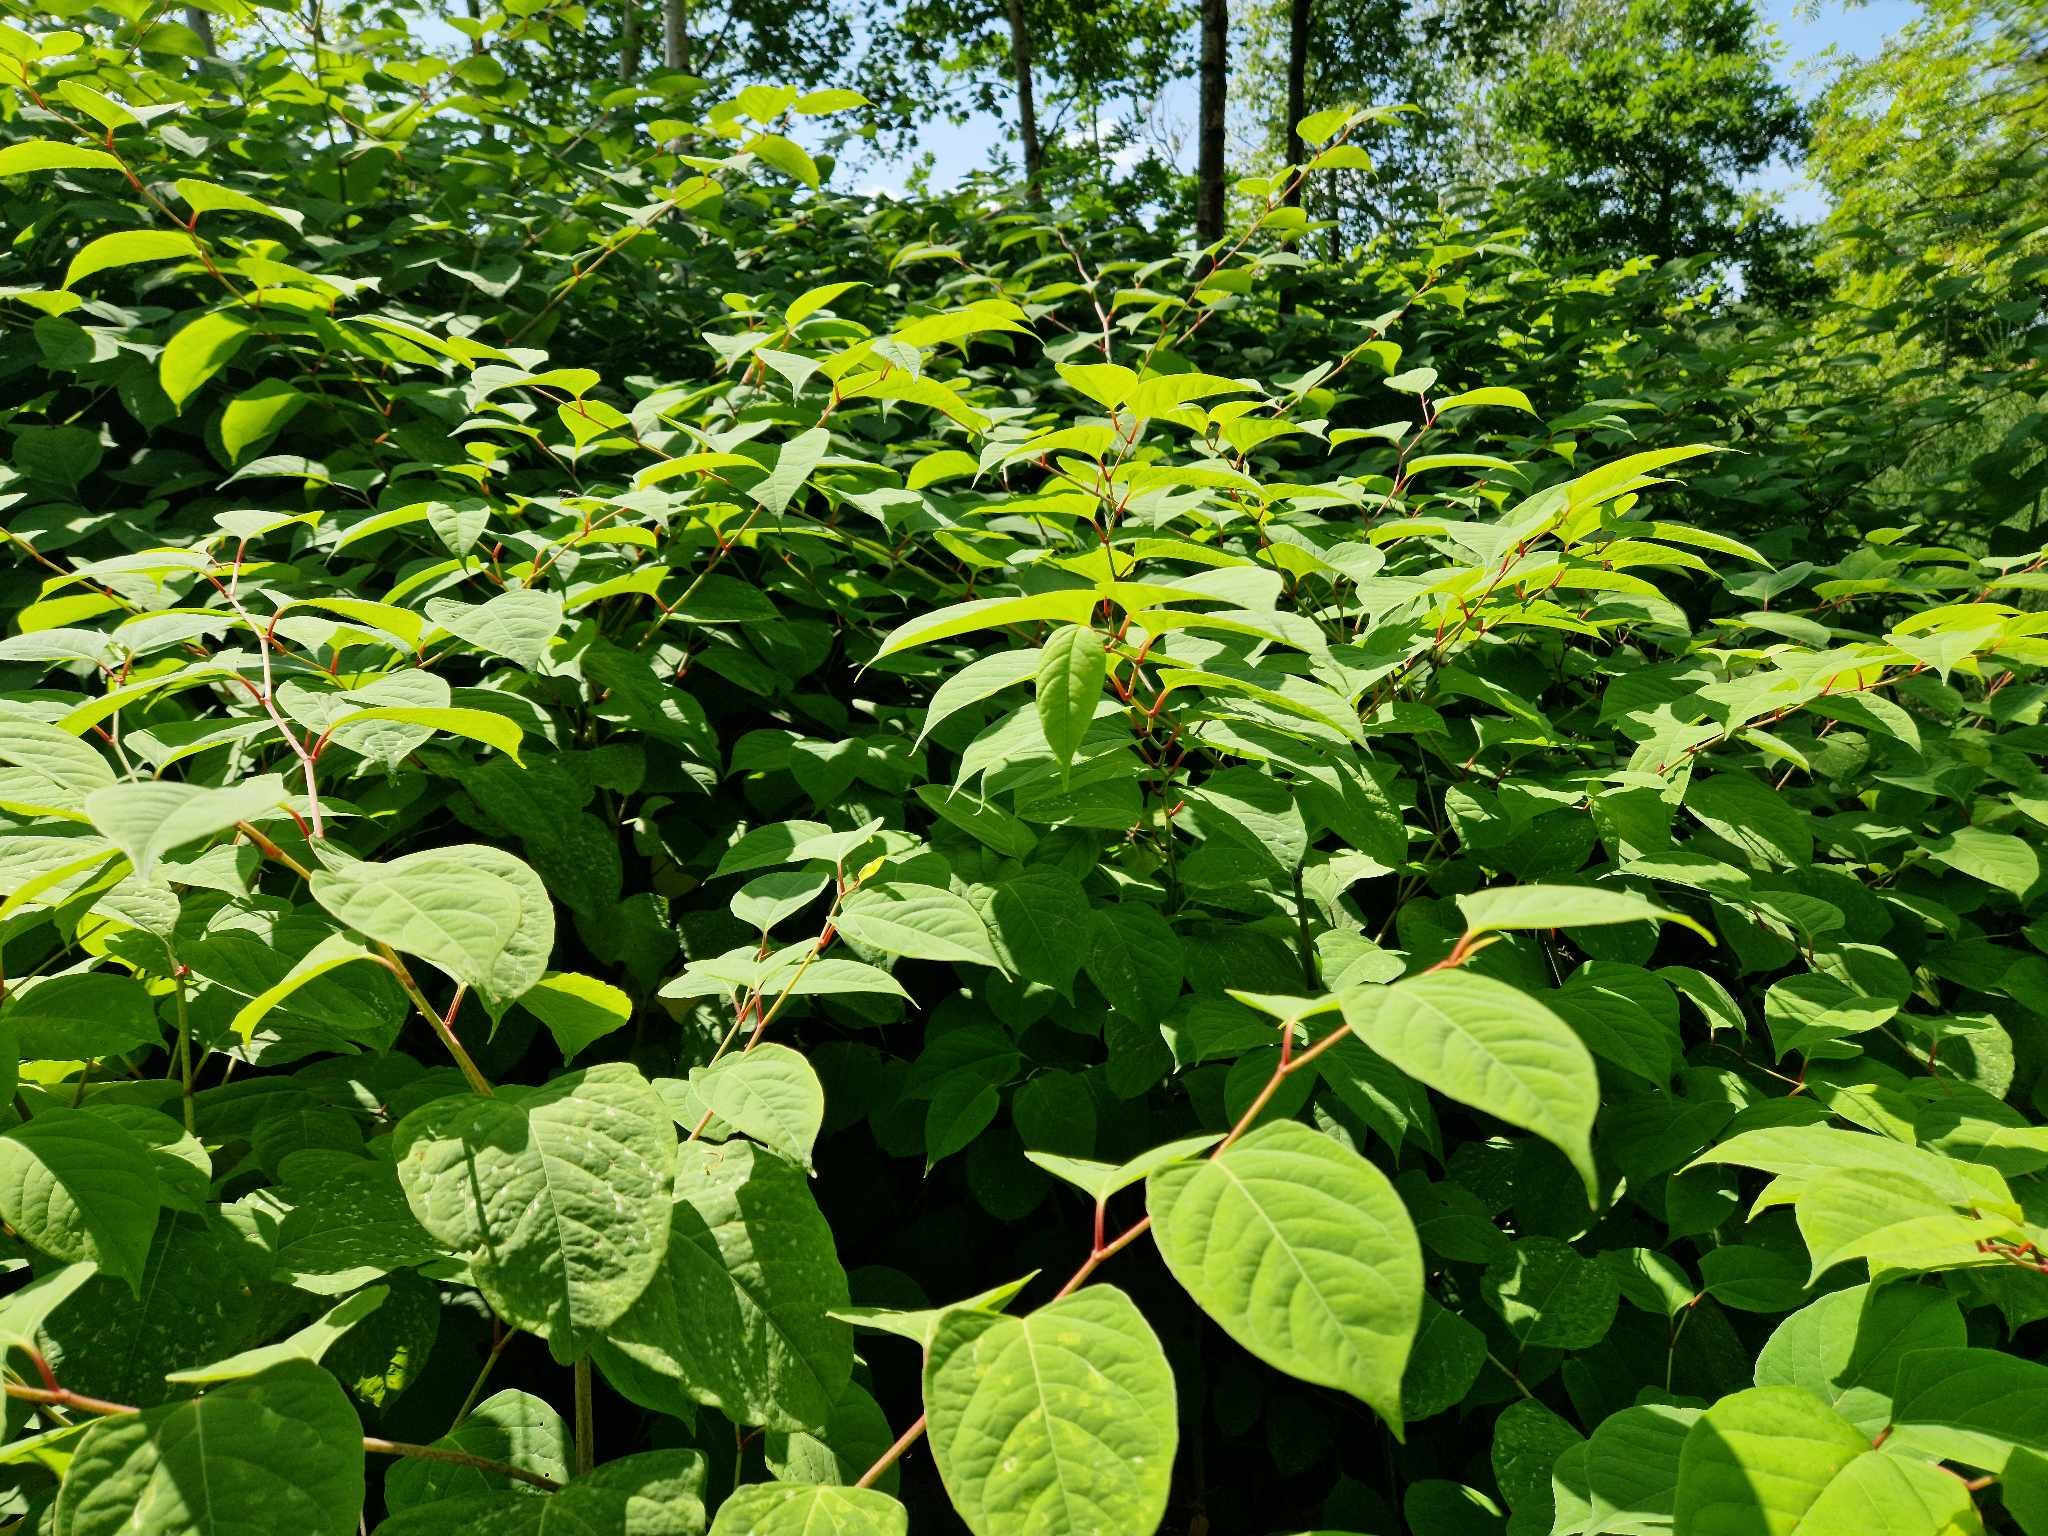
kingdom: Plantae
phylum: Tracheophyta
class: Magnoliopsida
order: Caryophyllales
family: Polygonaceae
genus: Reynoutria
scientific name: Reynoutria japonica
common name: Japan-pileurt
